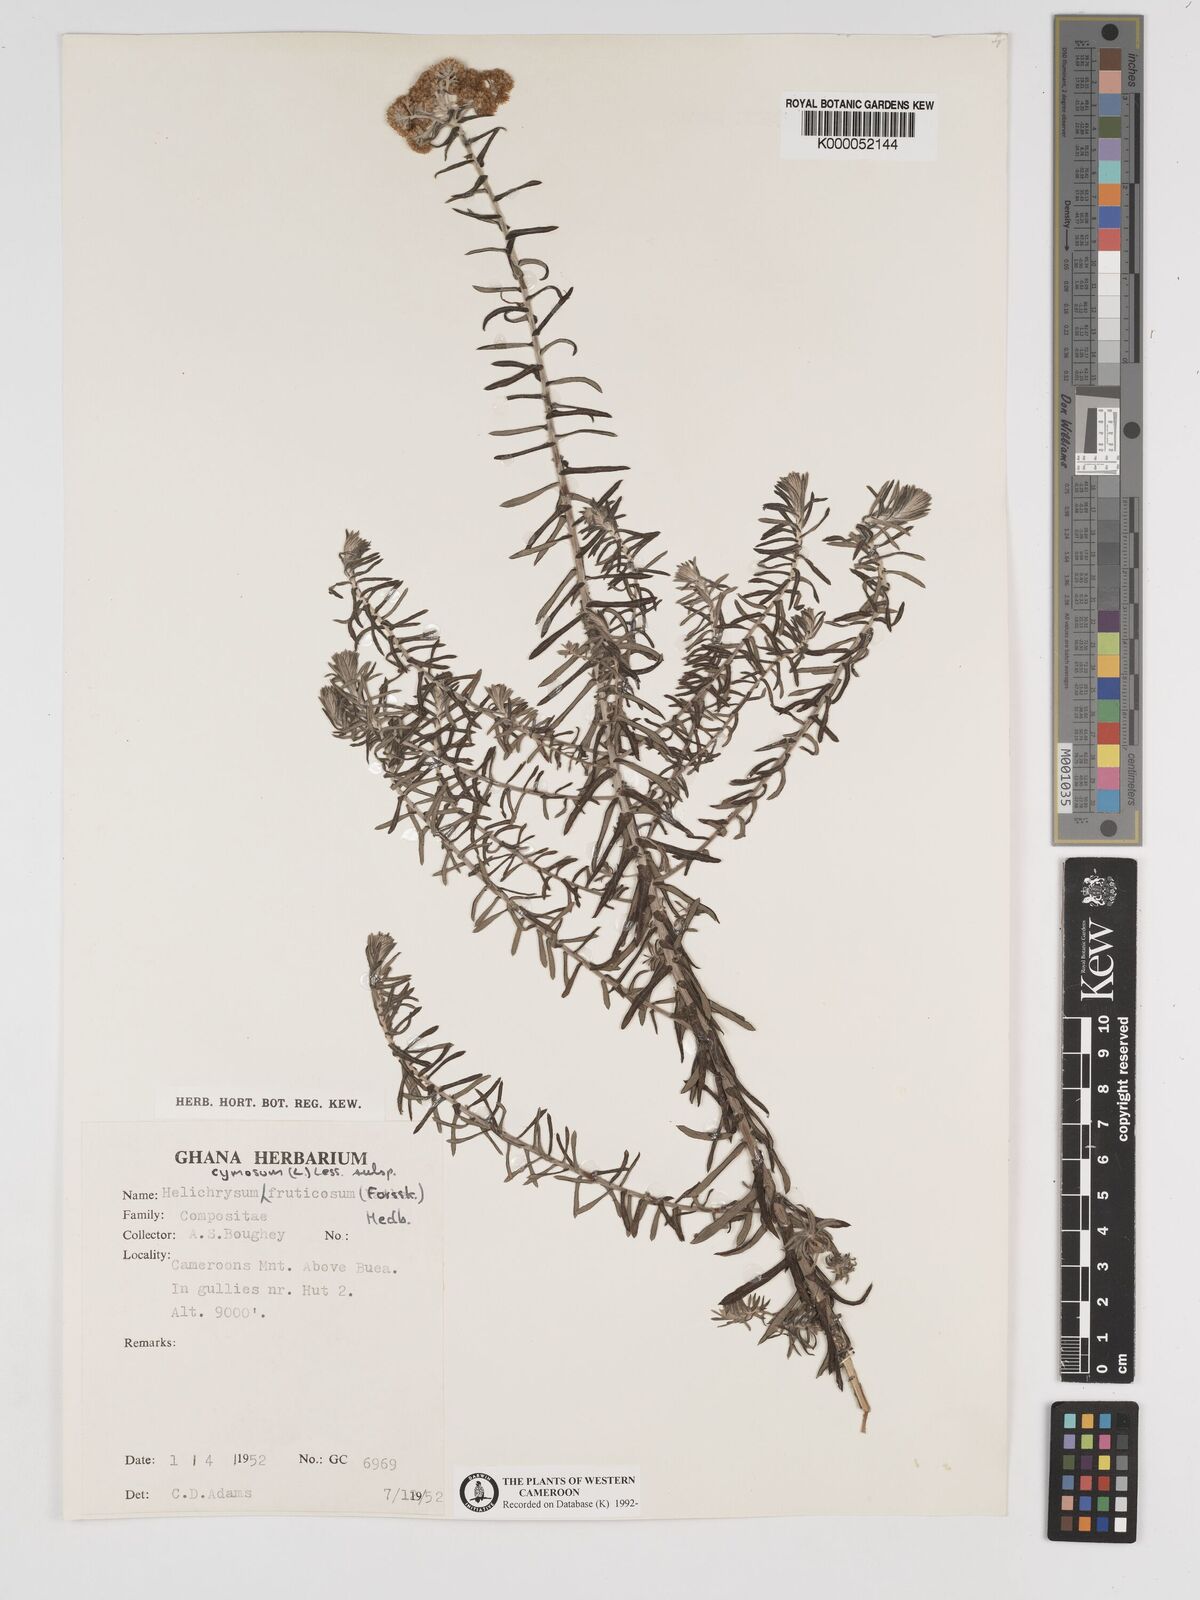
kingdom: Plantae
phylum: Tracheophyta
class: Magnoliopsida
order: Asterales
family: Asteraceae
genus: Helichrysum
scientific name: Helichrysum forskahlii
